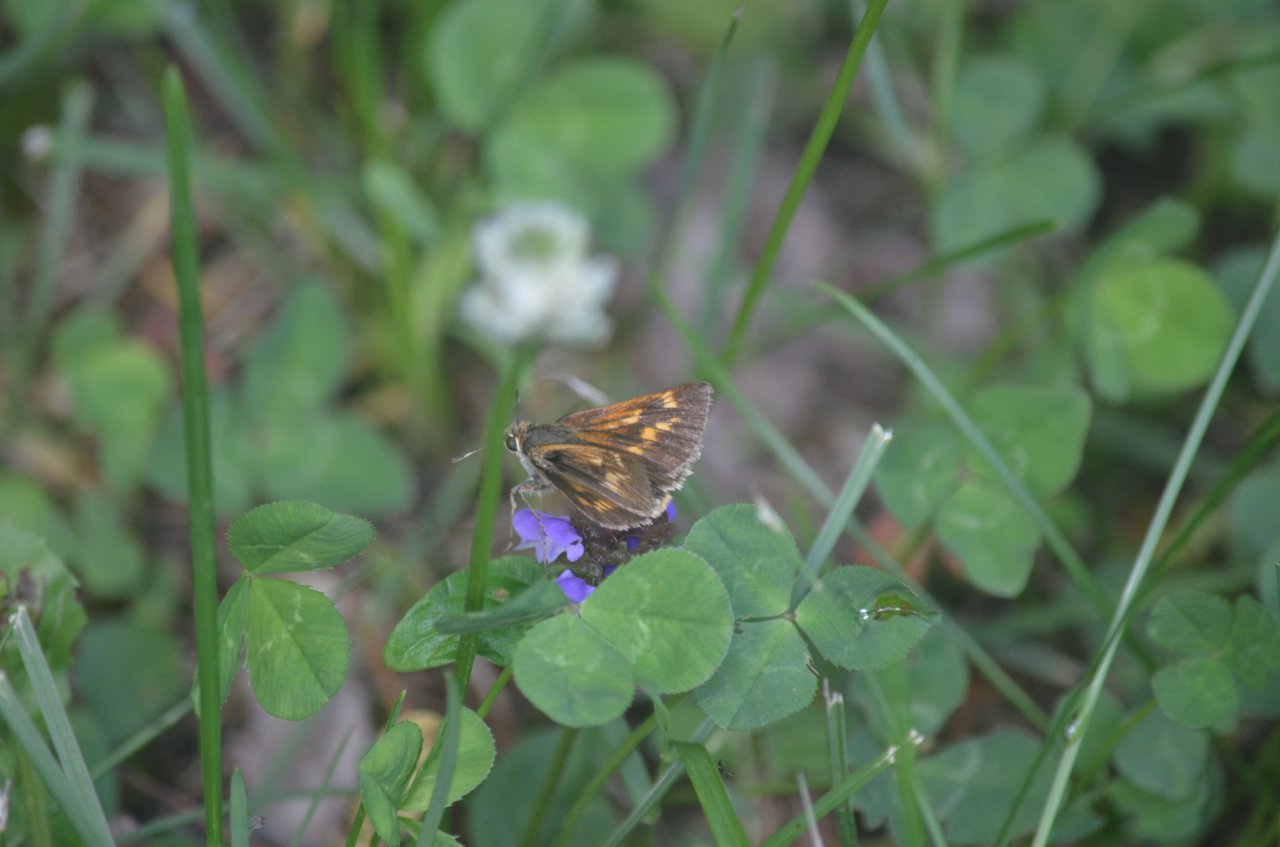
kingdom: Animalia
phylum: Arthropoda
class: Insecta
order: Lepidoptera
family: Hesperiidae
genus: Polites
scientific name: Polites
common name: Long Dash Skipper
